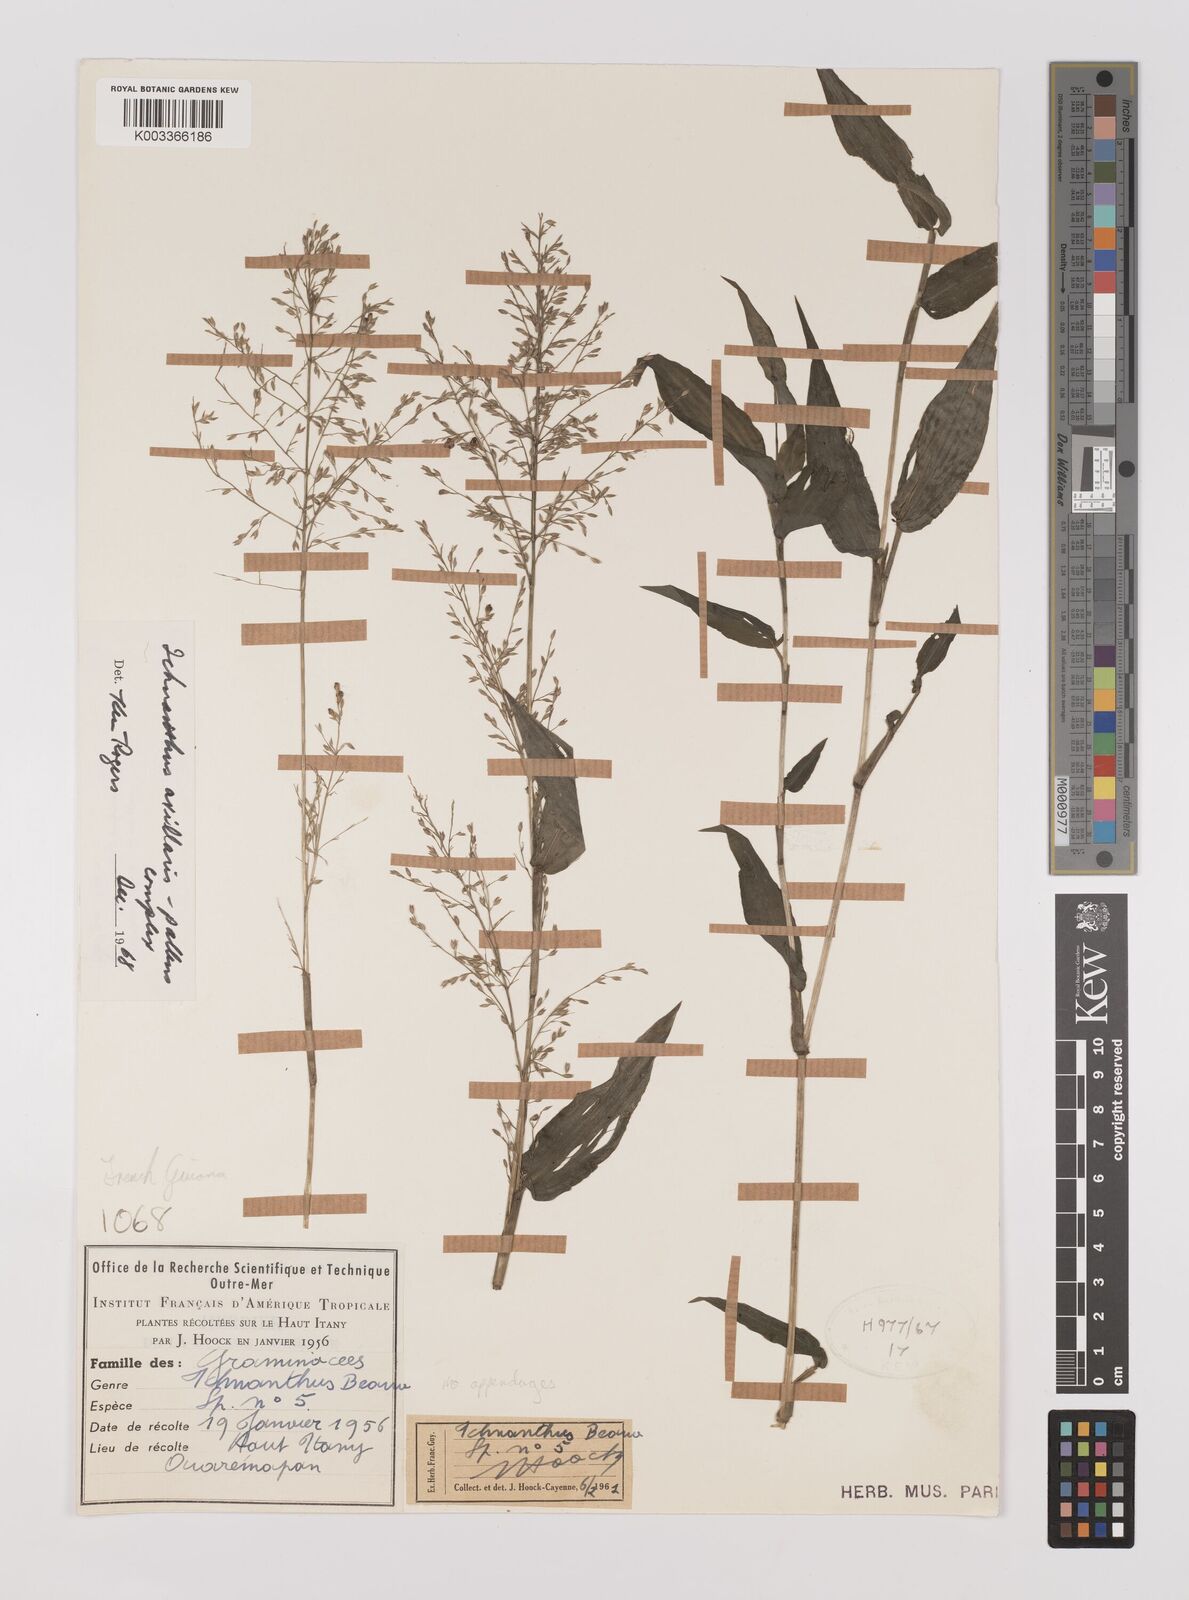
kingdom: Plantae
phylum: Tracheophyta
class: Liliopsida
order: Poales
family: Poaceae
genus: Ichnanthus
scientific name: Ichnanthus pallens
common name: Water grass
